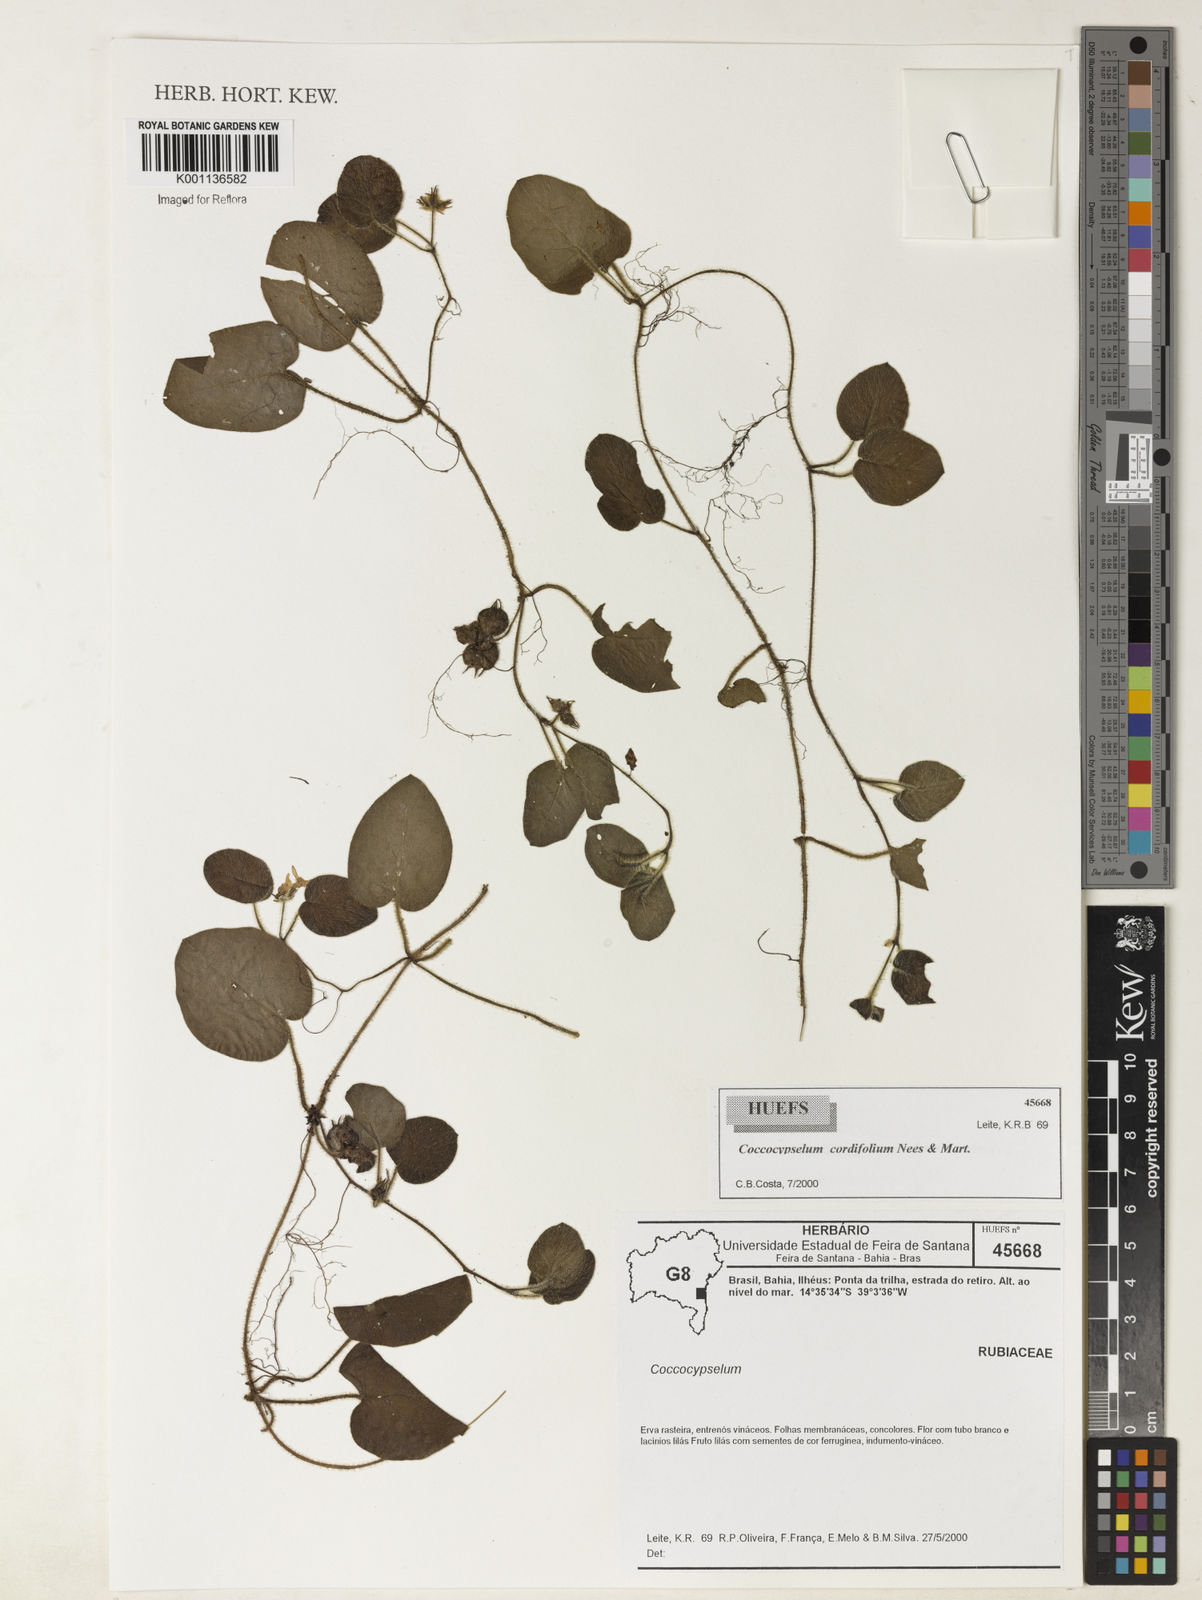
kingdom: Plantae
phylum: Tracheophyta
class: Magnoliopsida
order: Gentianales
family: Rubiaceae
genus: Coccocypselum
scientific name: Coccocypselum cordifolium
